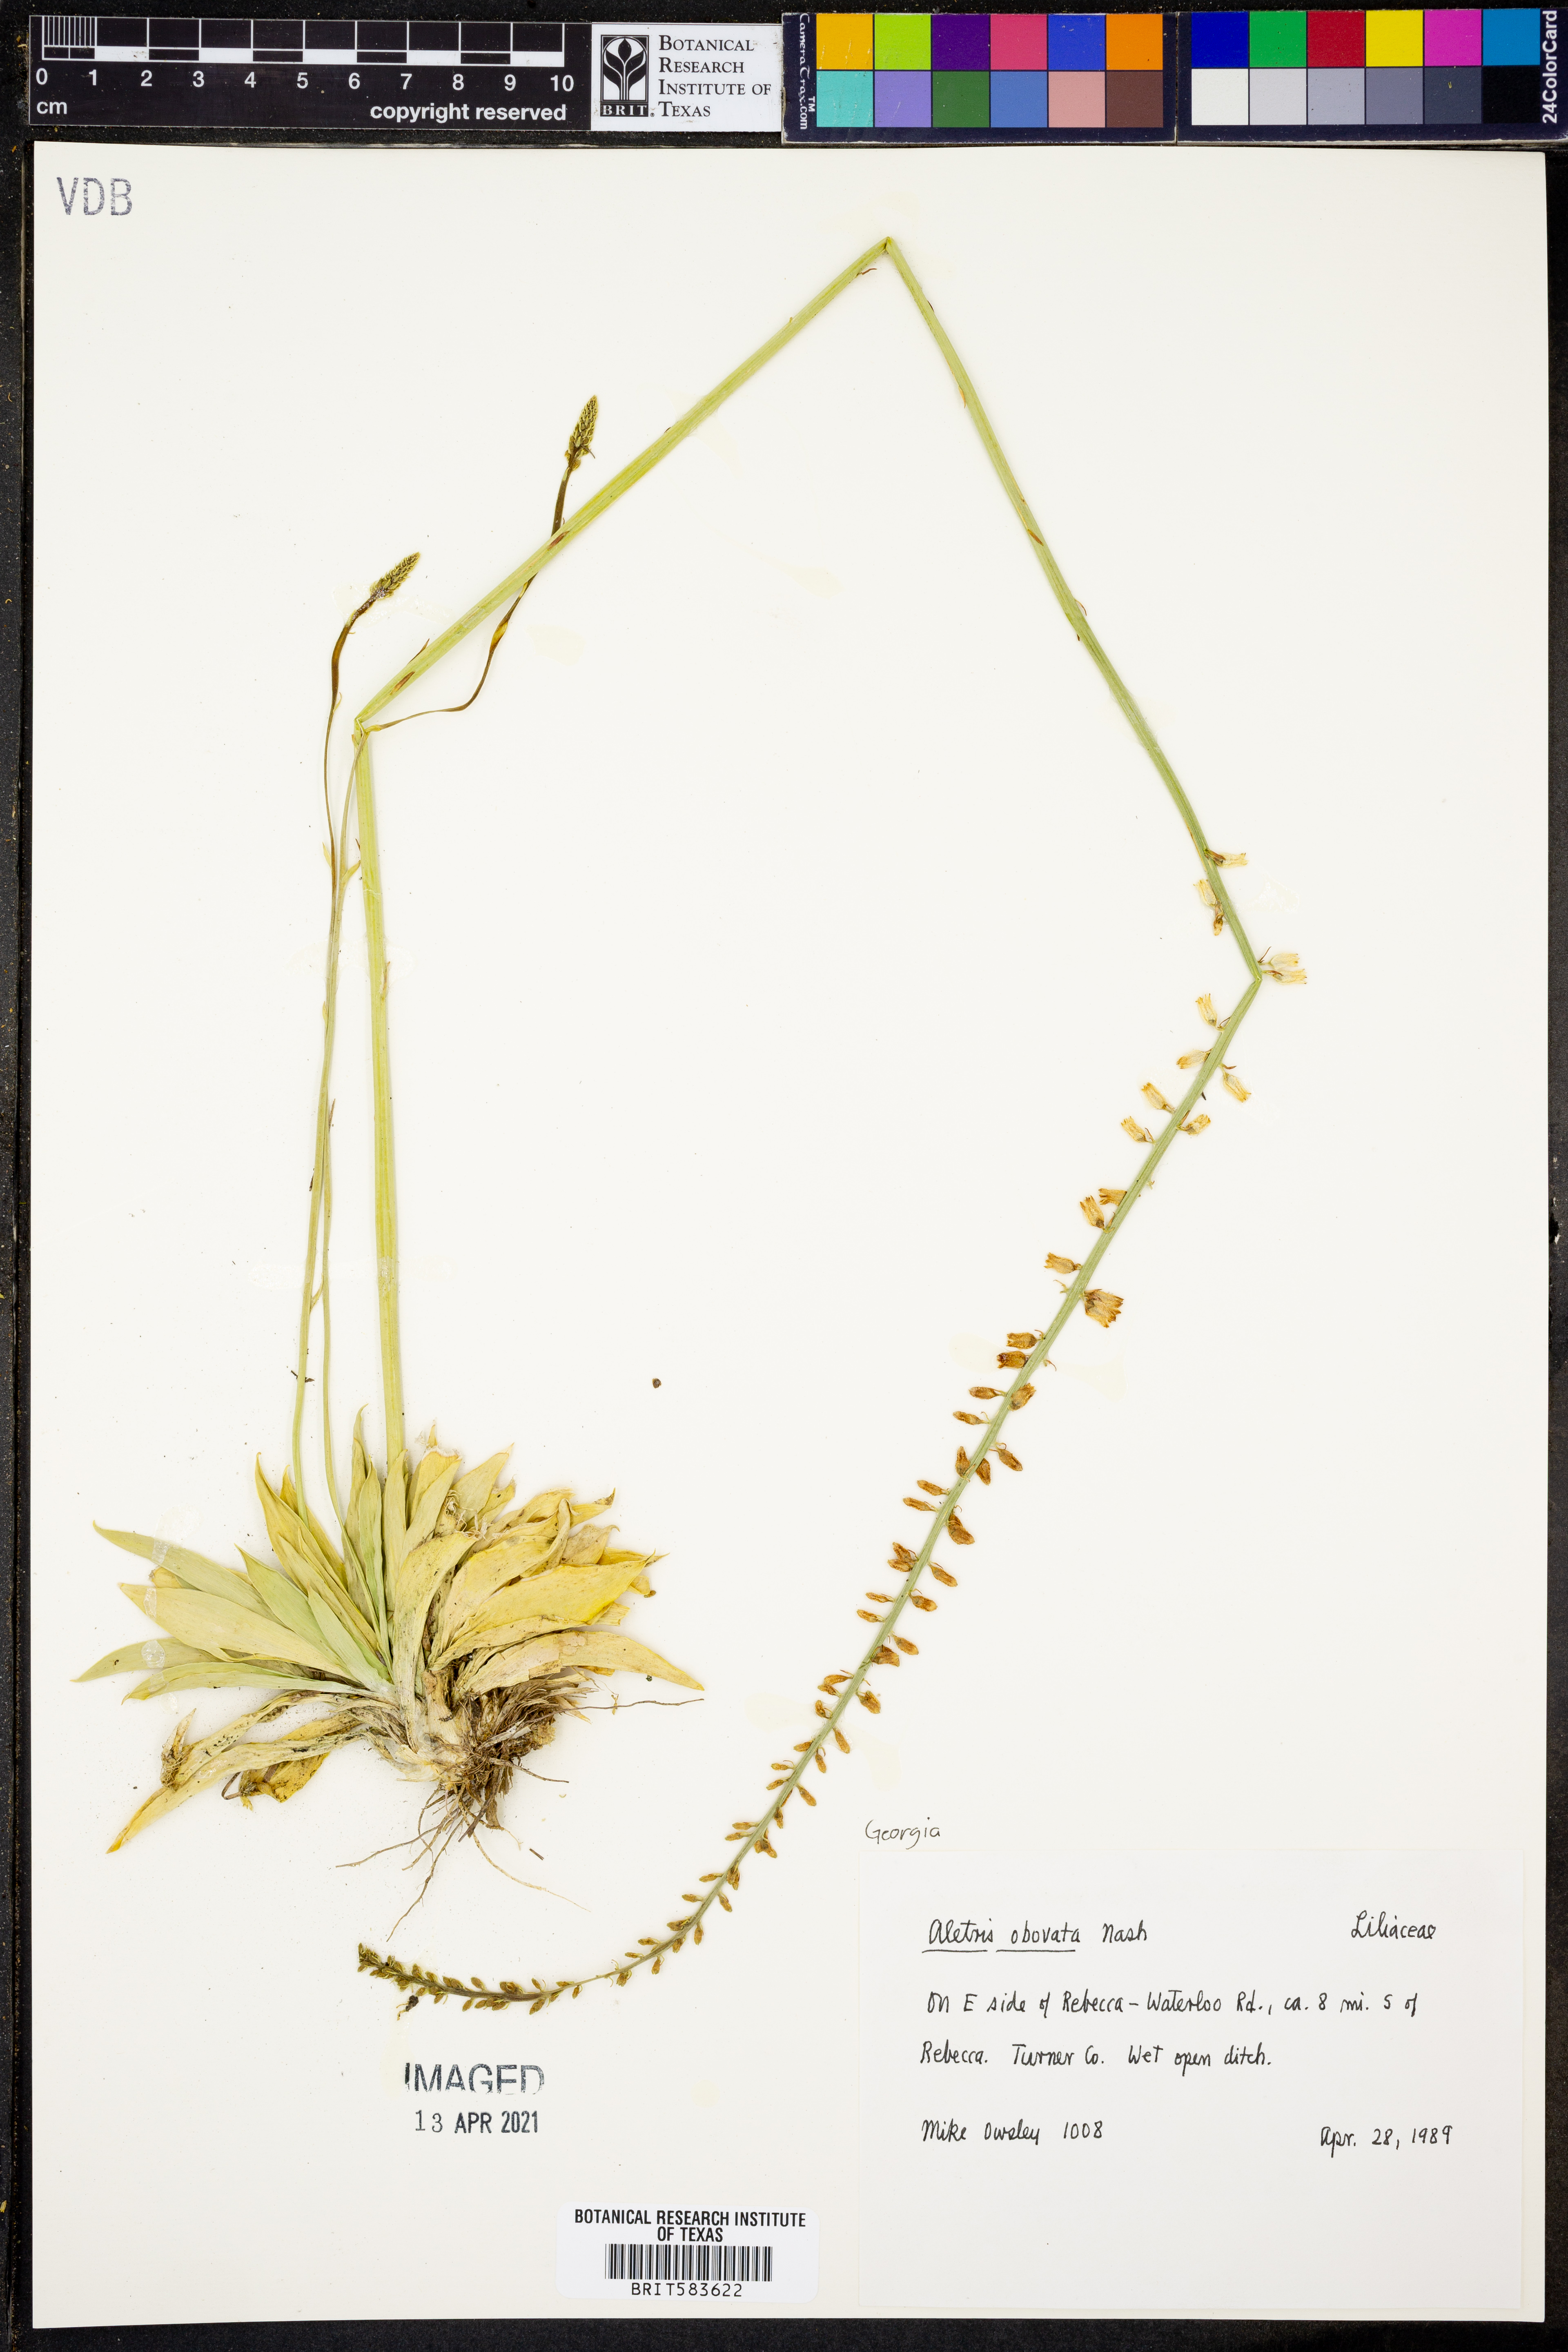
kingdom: Plantae
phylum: Tracheophyta
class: Liliopsida
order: Dioscoreales
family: Nartheciaceae
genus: Aletris
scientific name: Aletris obovata
